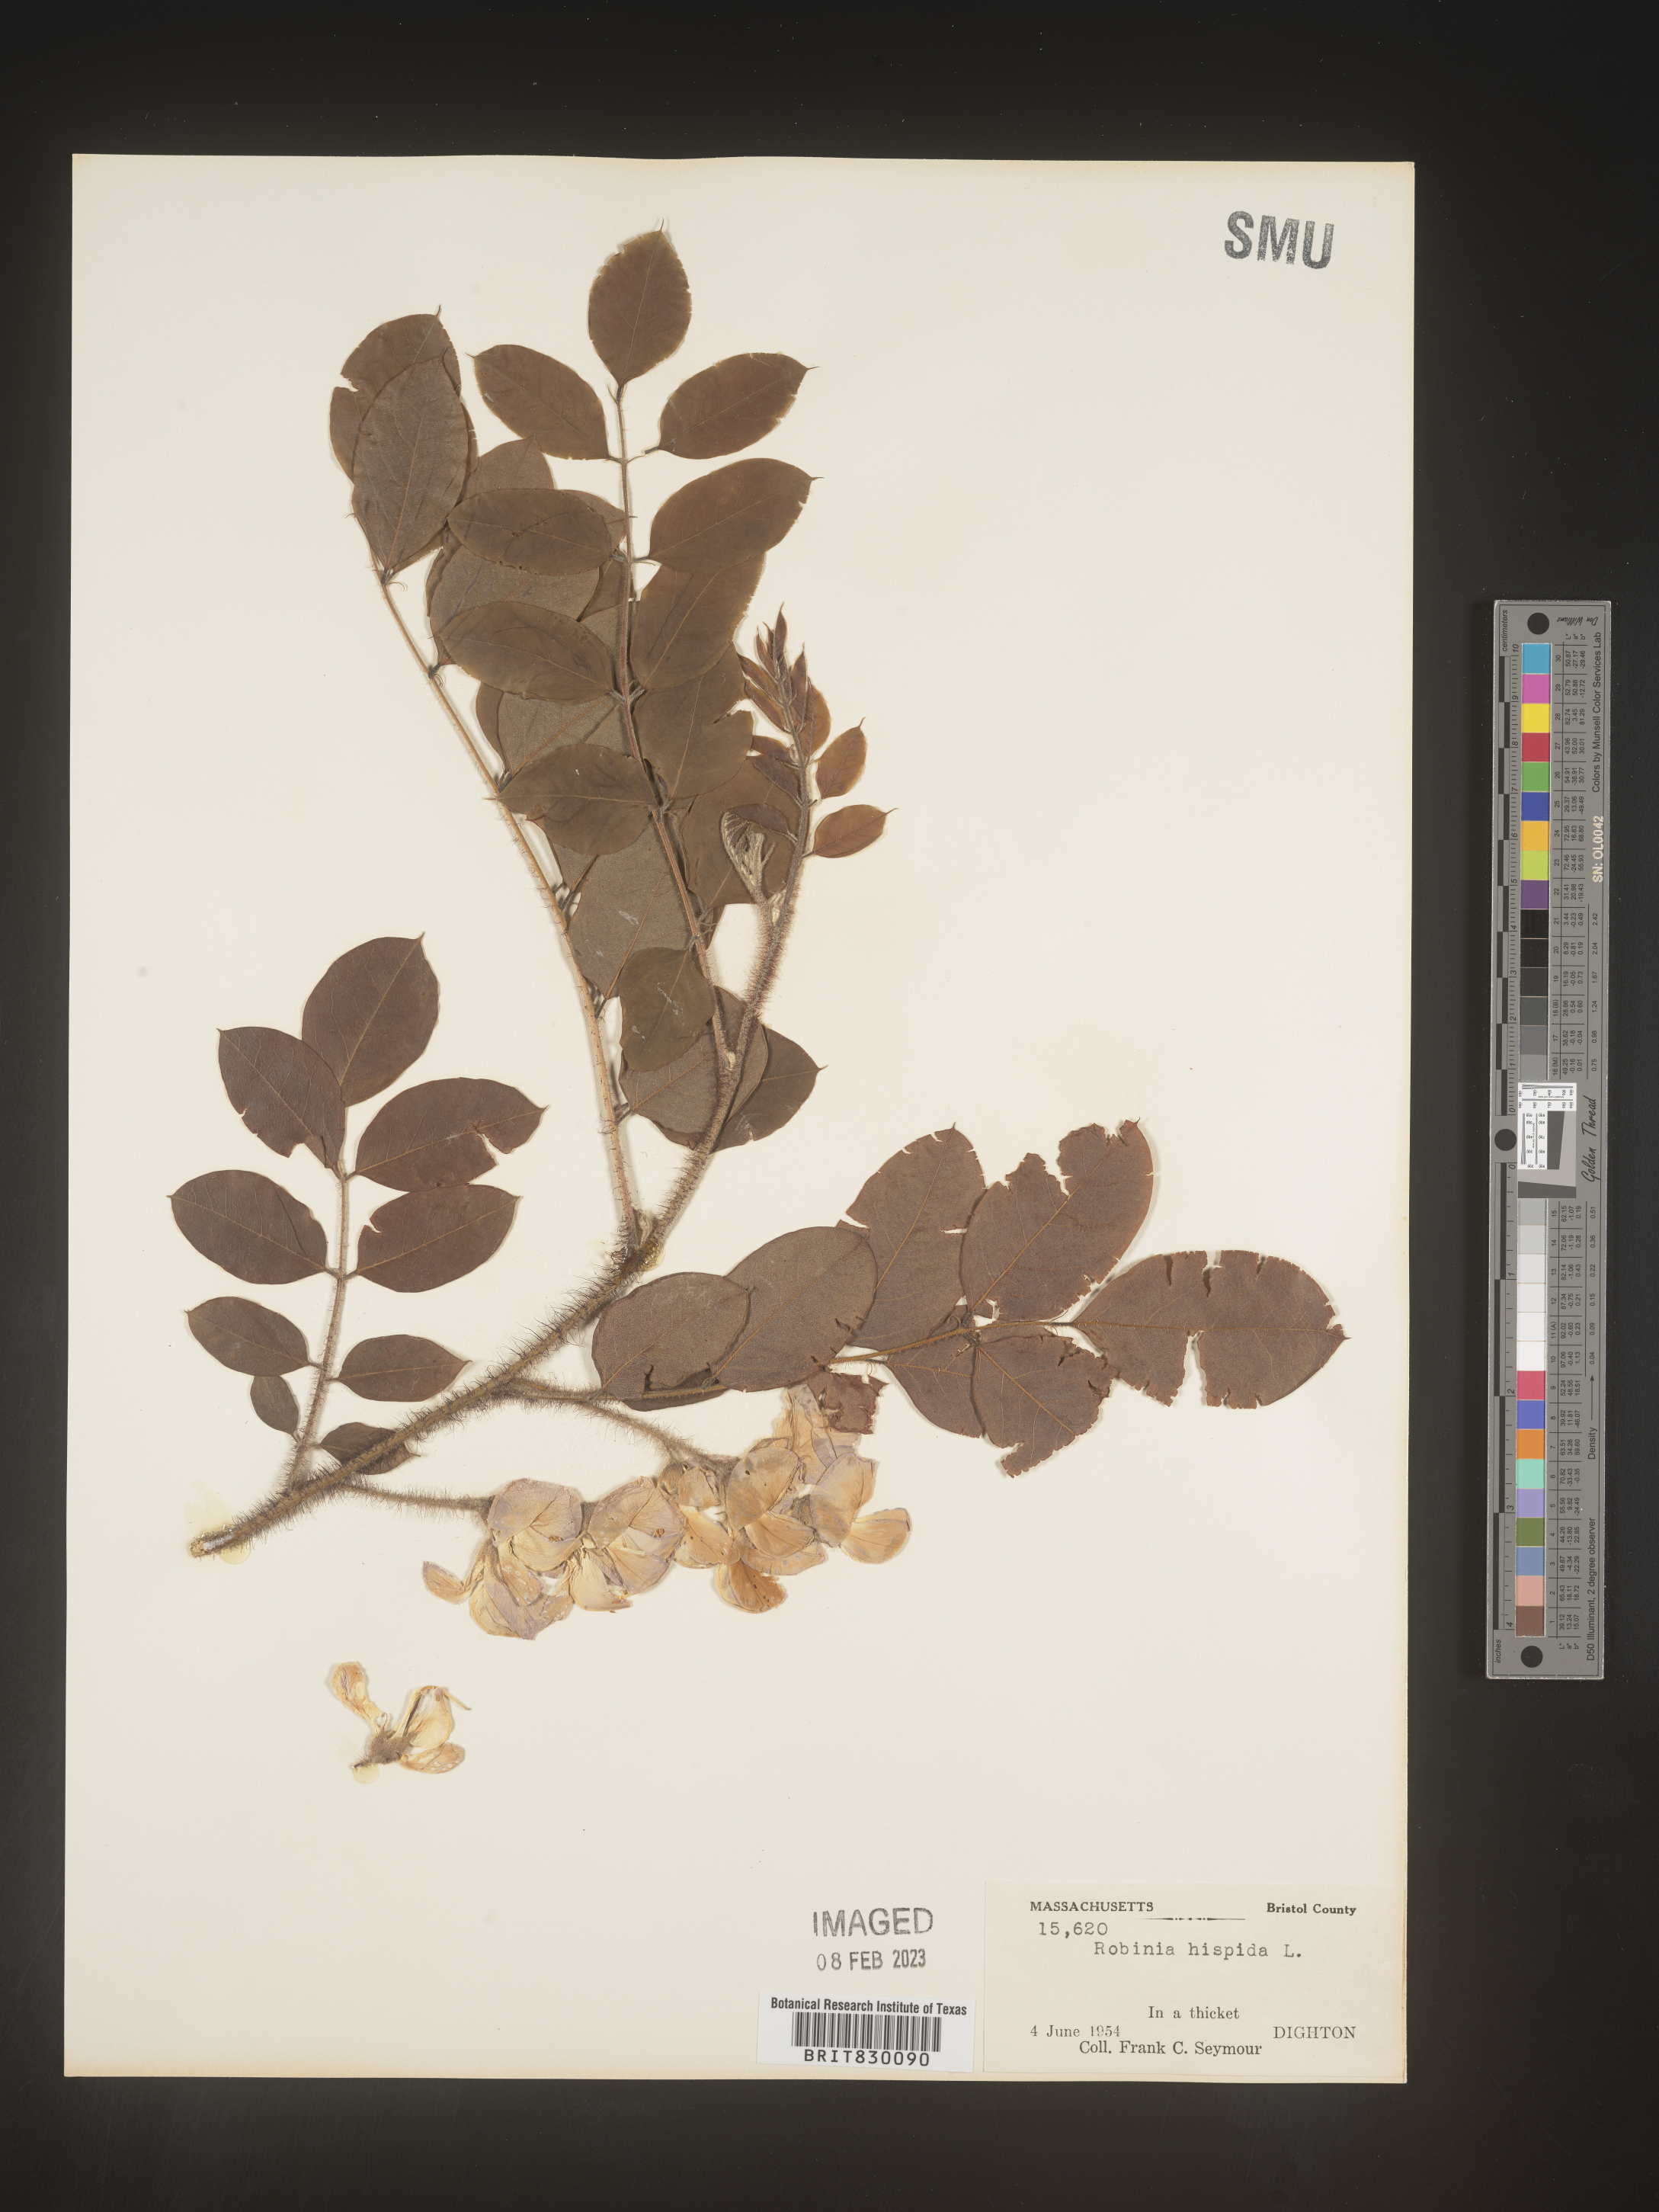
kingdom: Plantae
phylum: Tracheophyta
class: Magnoliopsida
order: Fabales
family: Fabaceae
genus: Robinia
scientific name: Robinia hispida
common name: Bristly locust
